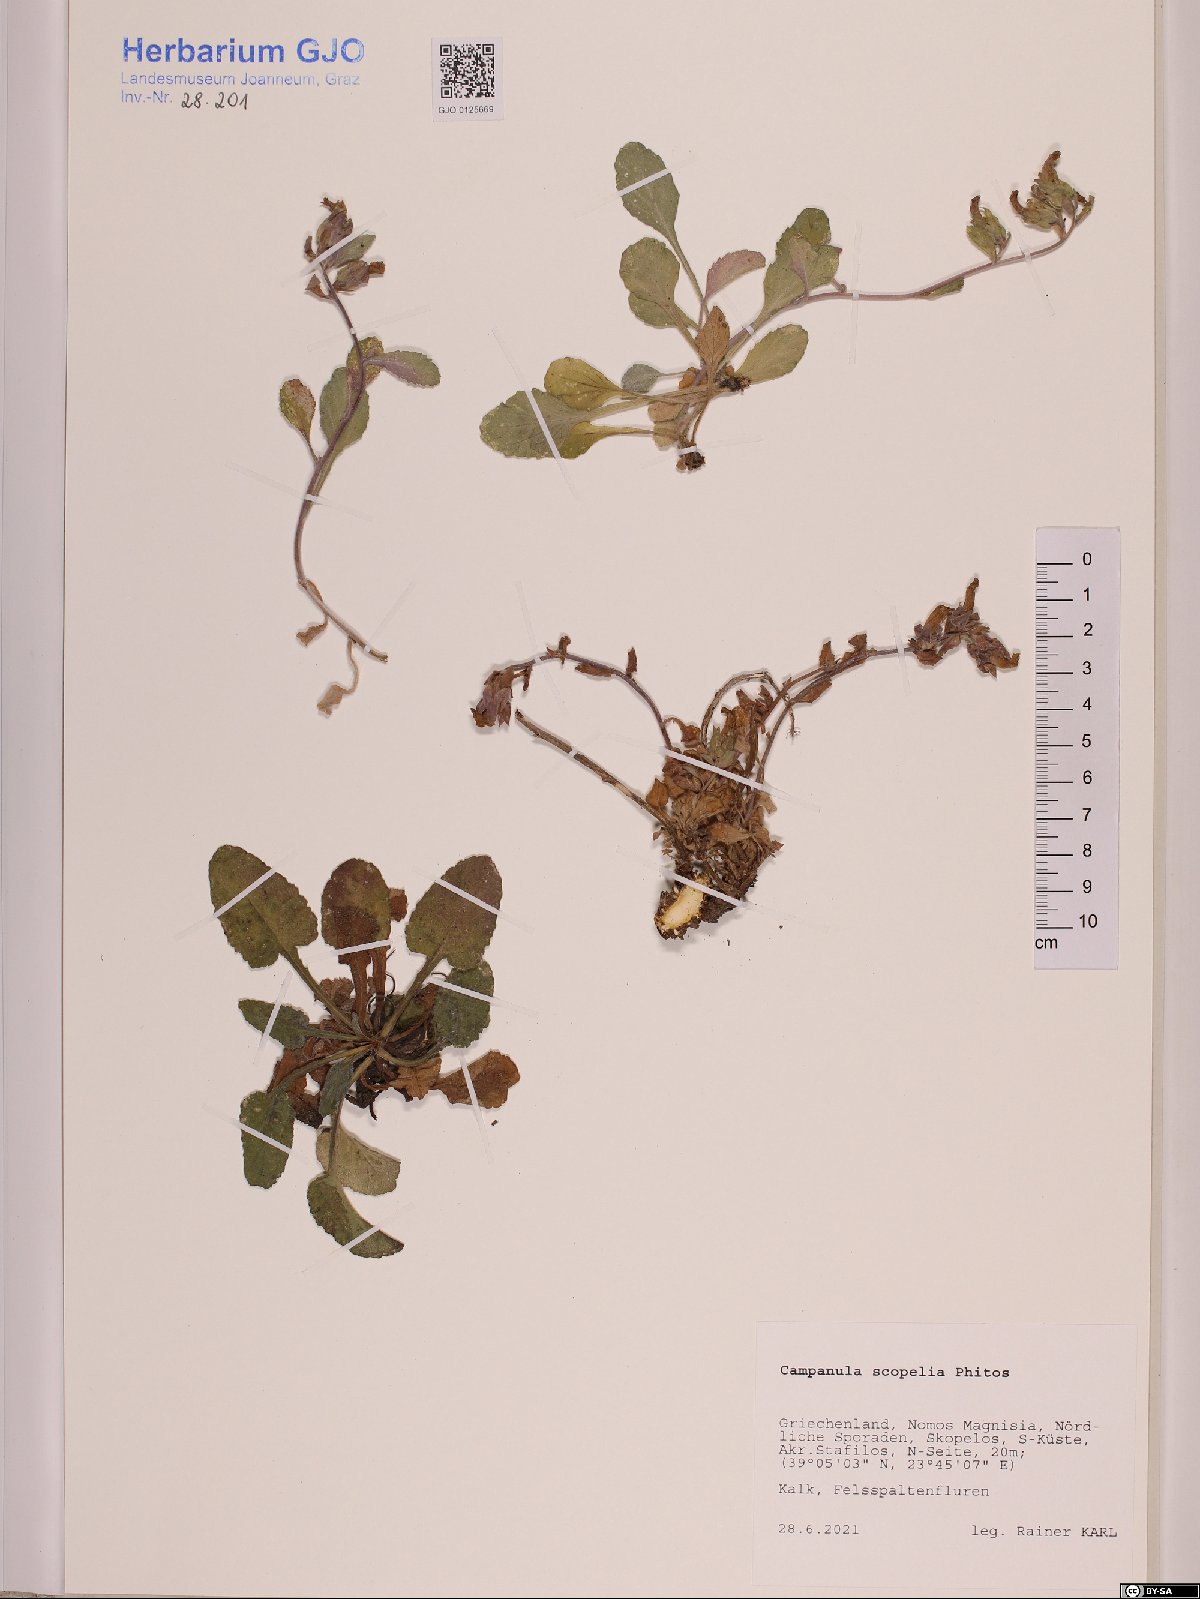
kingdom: Plantae
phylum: Tracheophyta
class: Magnoliopsida
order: Asterales
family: Campanulaceae
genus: Campanula
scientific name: Campanula scopelia
